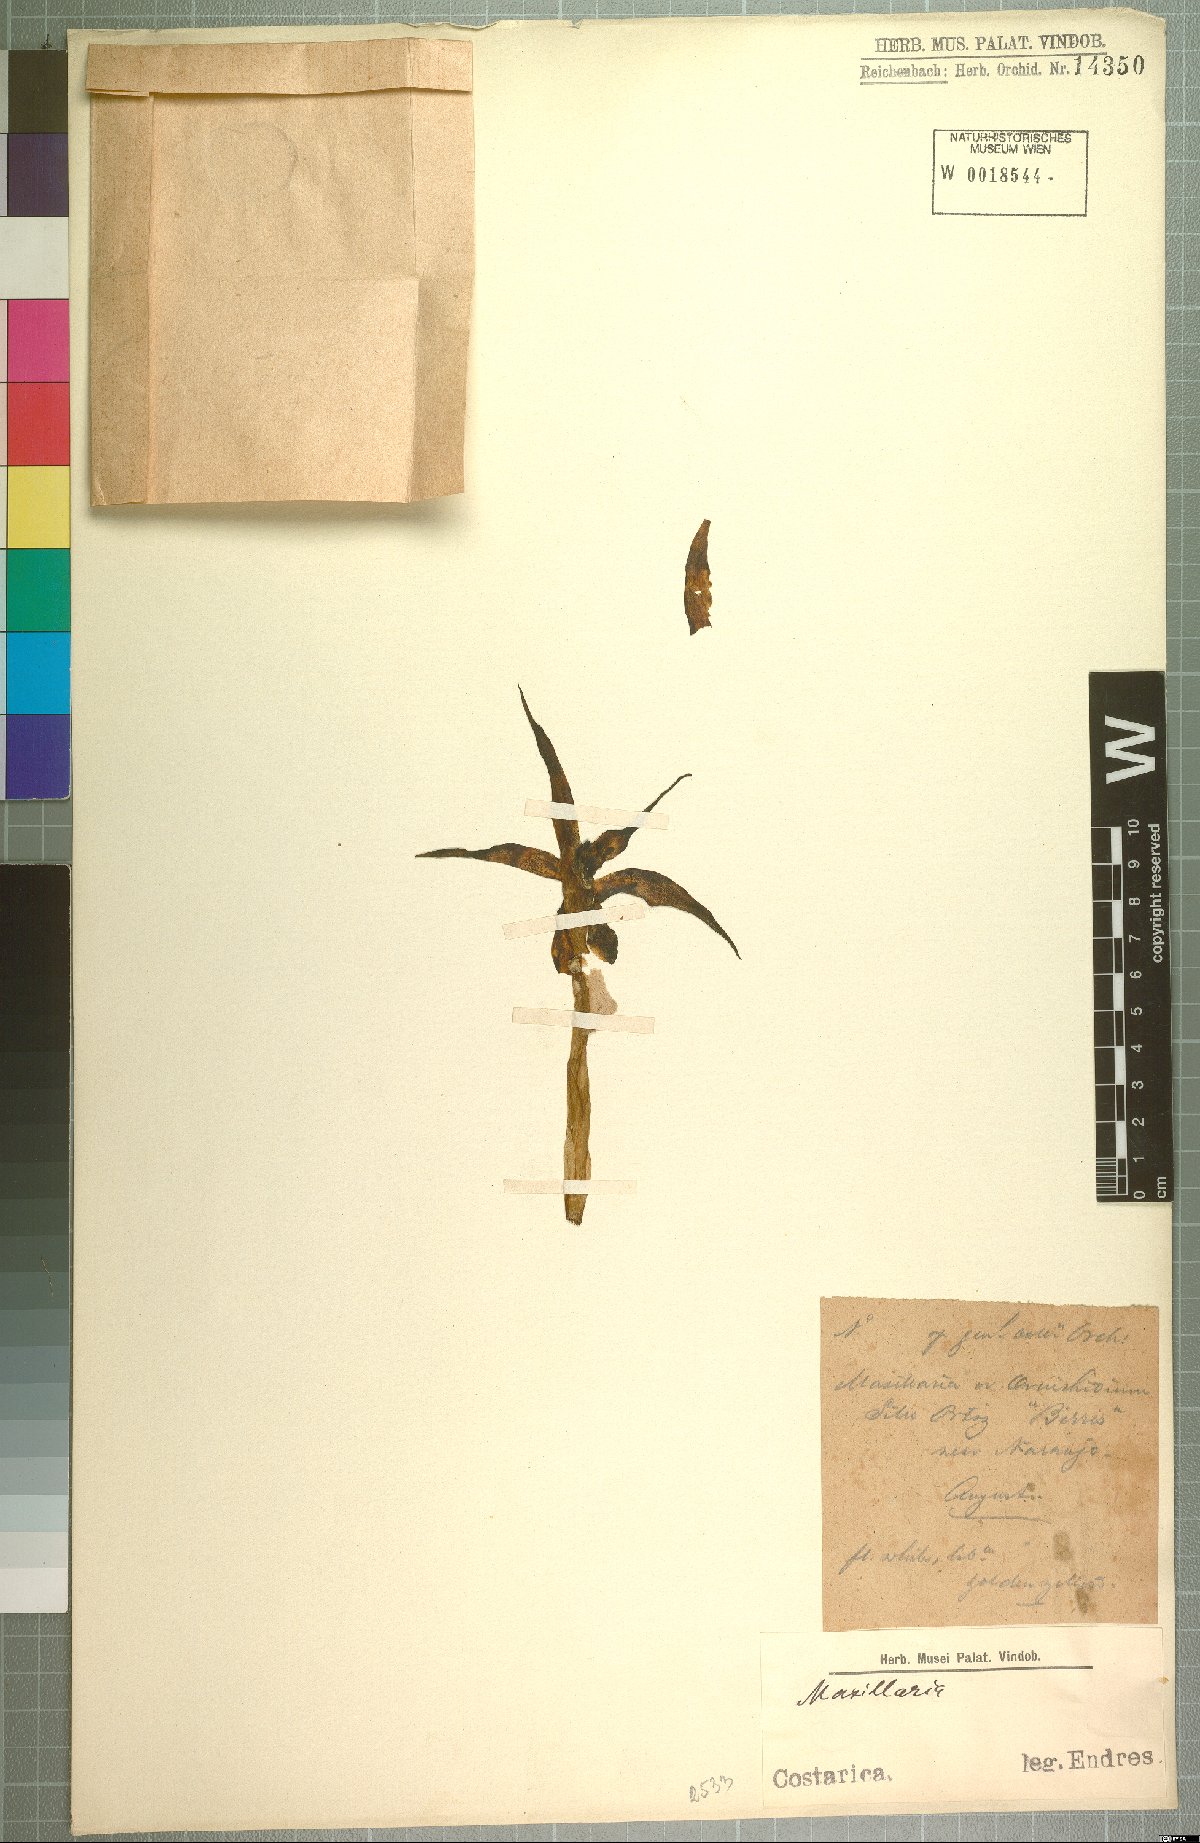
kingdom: Plantae
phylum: Tracheophyta
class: Liliopsida
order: Asparagales
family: Orchidaceae
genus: Maxillaria
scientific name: Maxillaria
